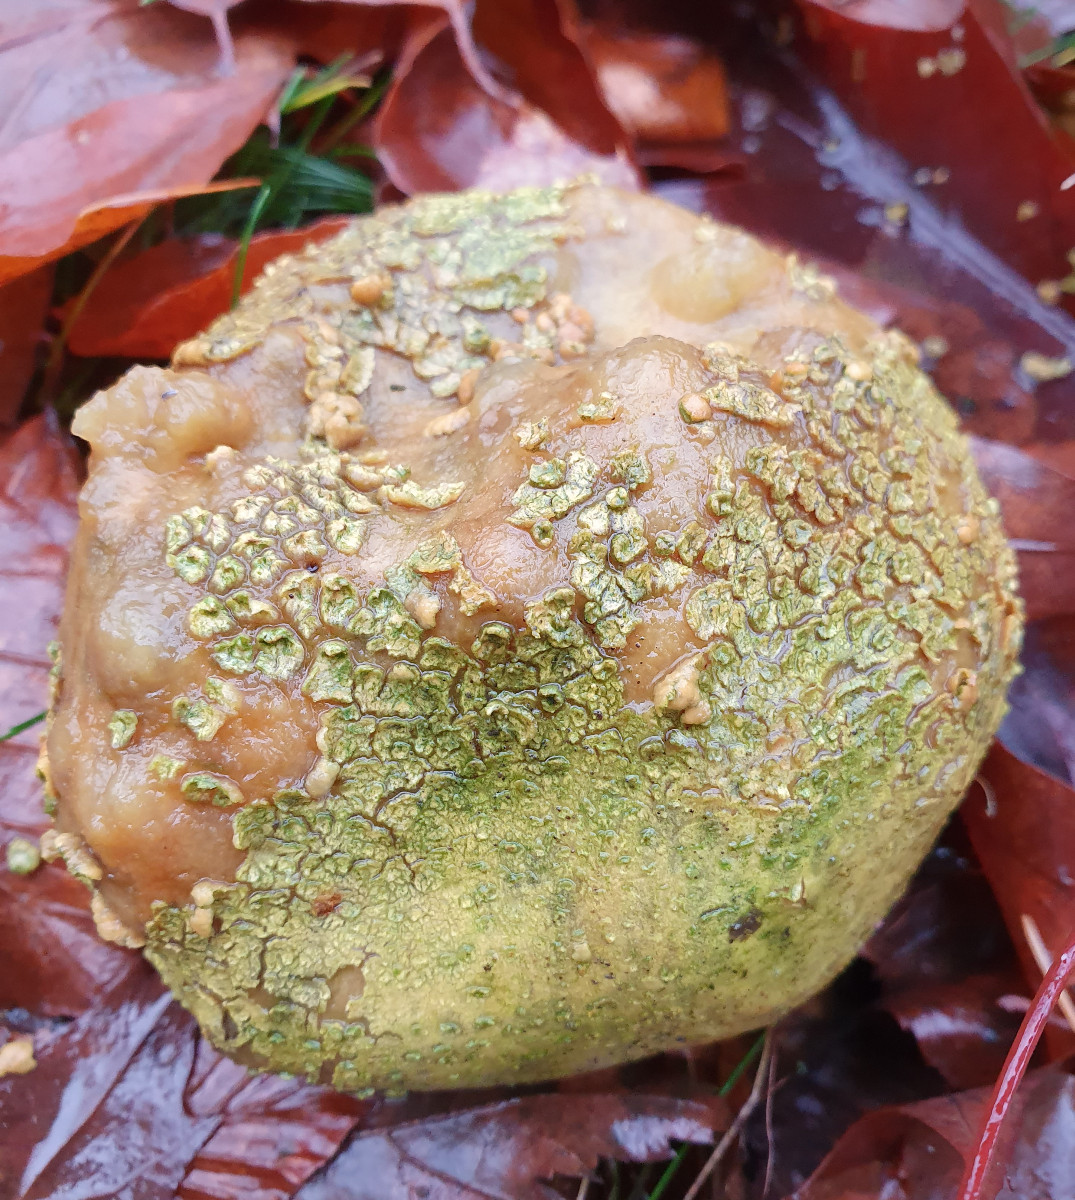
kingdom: Fungi
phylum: Basidiomycota
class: Agaricomycetes
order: Boletales
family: Sclerodermataceae
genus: Scleroderma
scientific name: Scleroderma citrinum
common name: almindelig bruskbold
